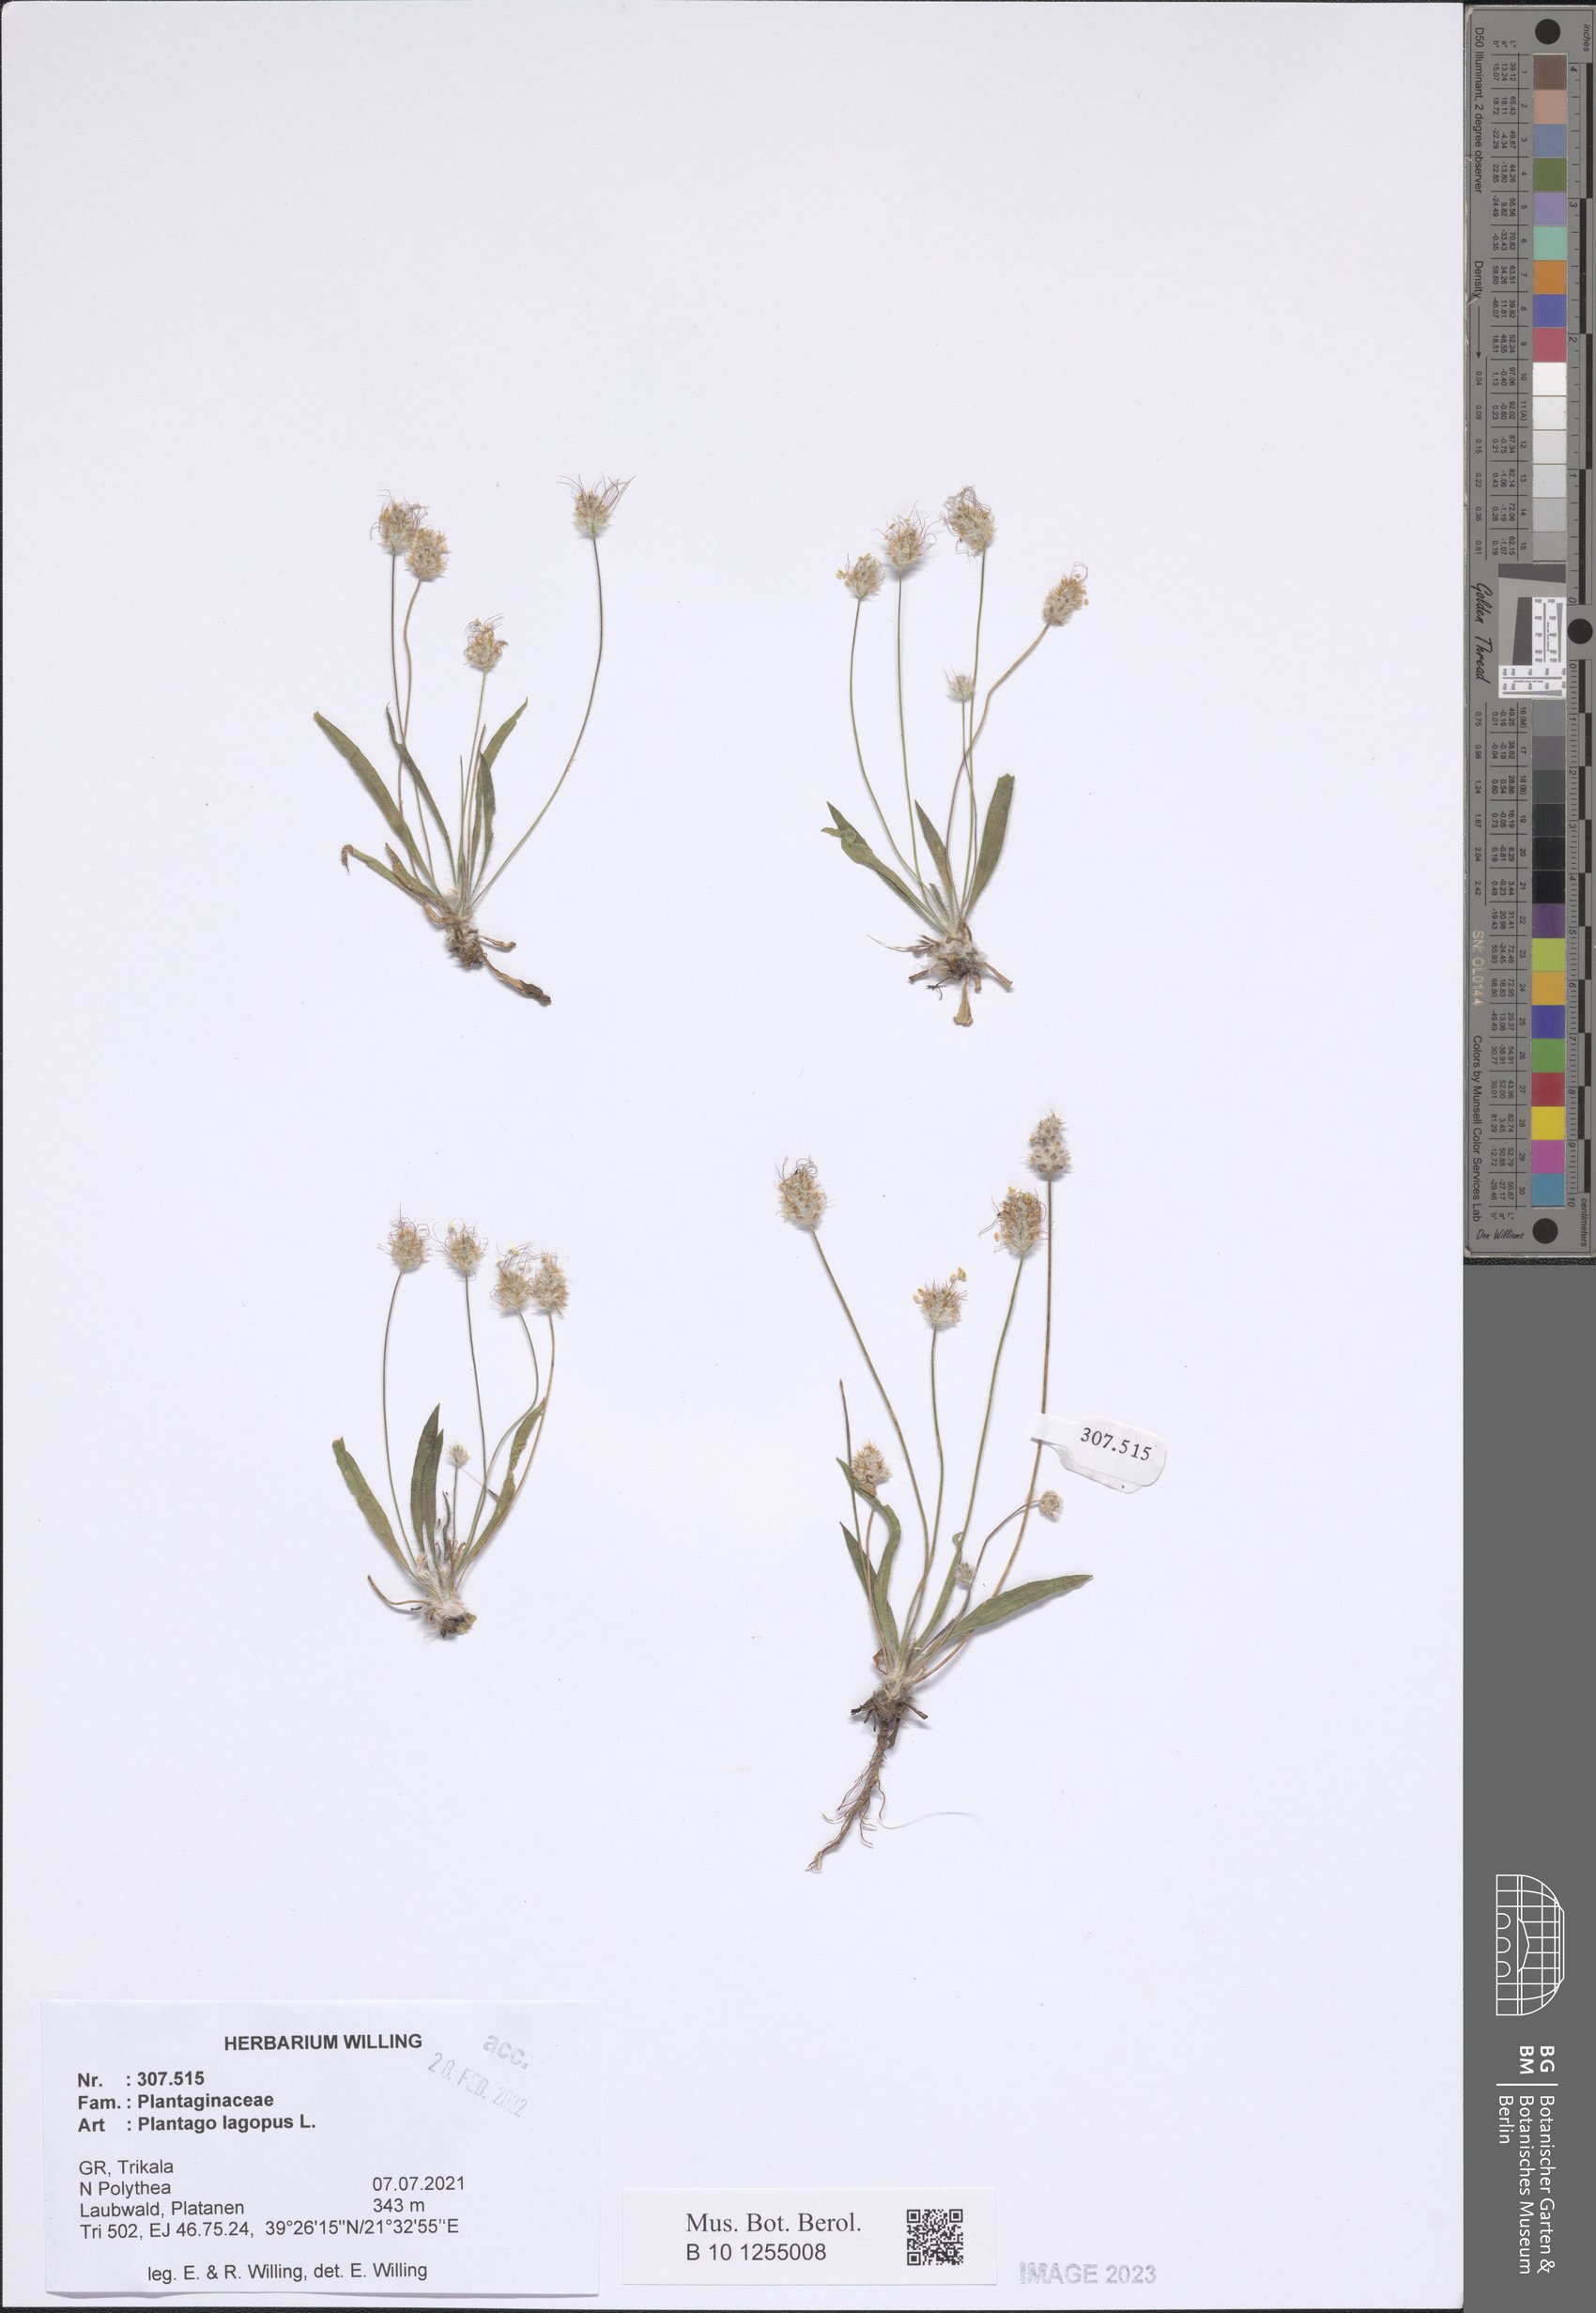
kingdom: Plantae
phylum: Tracheophyta
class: Magnoliopsida
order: Lamiales
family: Plantaginaceae
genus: Plantago
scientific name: Plantago lagopus
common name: Hare-foot plantain
